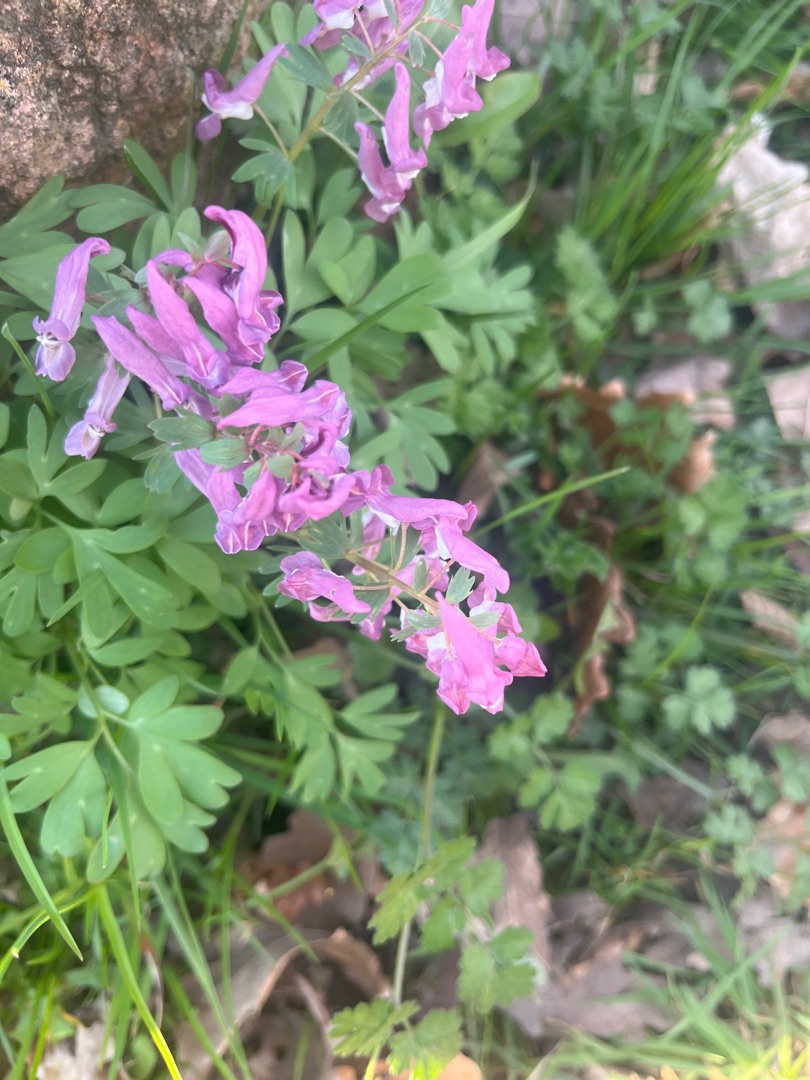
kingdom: Plantae
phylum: Tracheophyta
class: Magnoliopsida
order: Ranunculales
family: Papaveraceae
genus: Corydalis
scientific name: Corydalis solida
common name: Langstilket lærkespore
